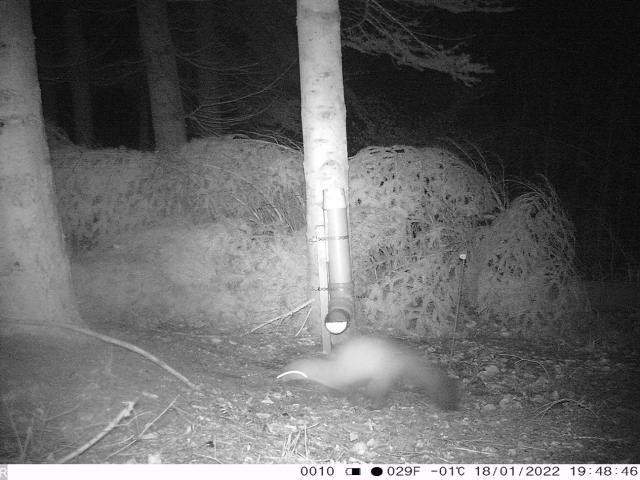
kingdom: Animalia
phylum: Chordata
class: Mammalia
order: Carnivora
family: Mustelidae
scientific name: Mustelidae
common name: Mårer
